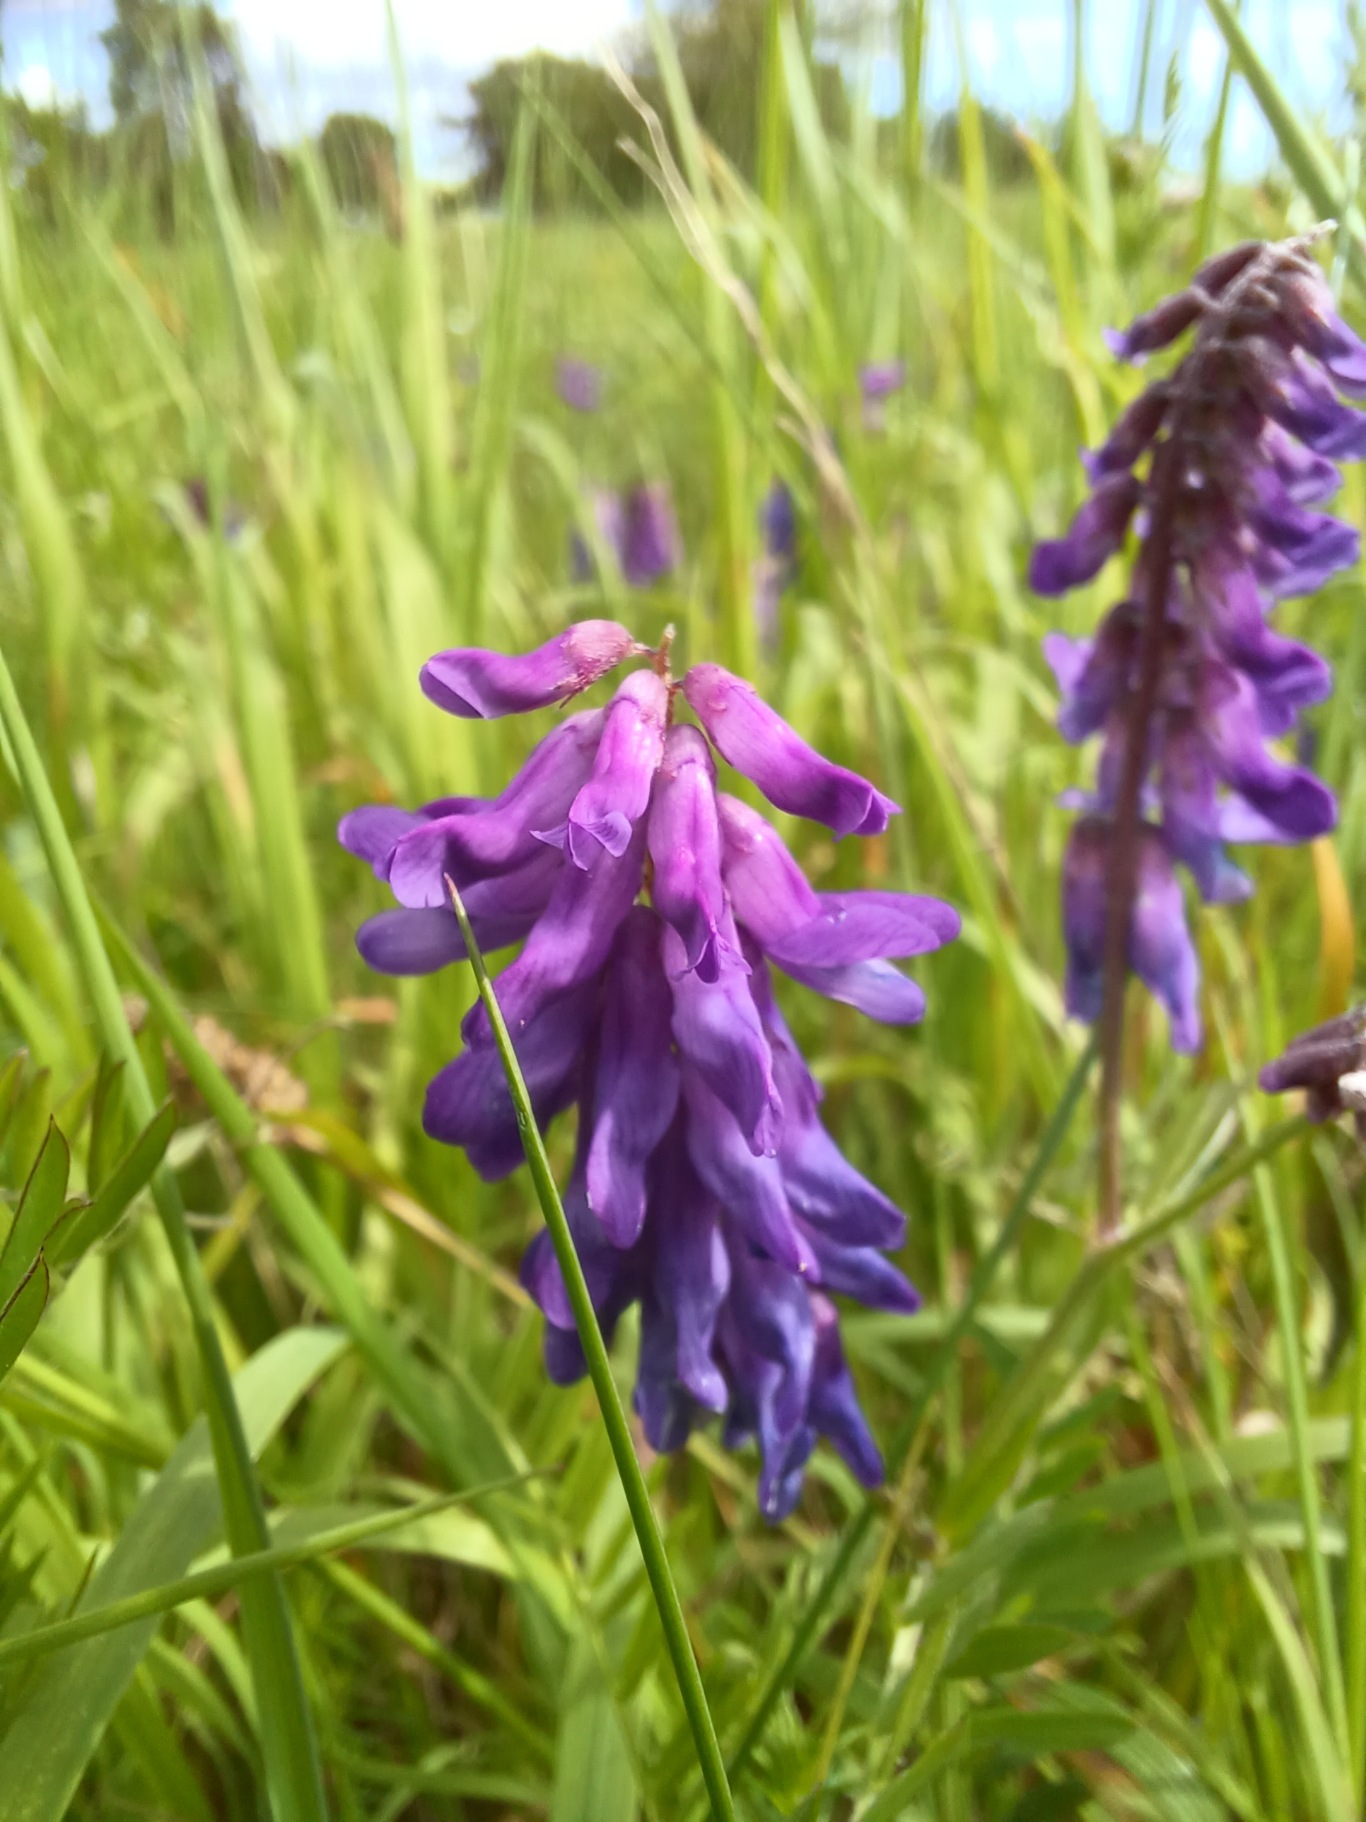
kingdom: Plantae
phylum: Tracheophyta
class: Magnoliopsida
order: Fabales
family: Fabaceae
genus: Vicia
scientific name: Vicia cracca
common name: Muse-vikke
